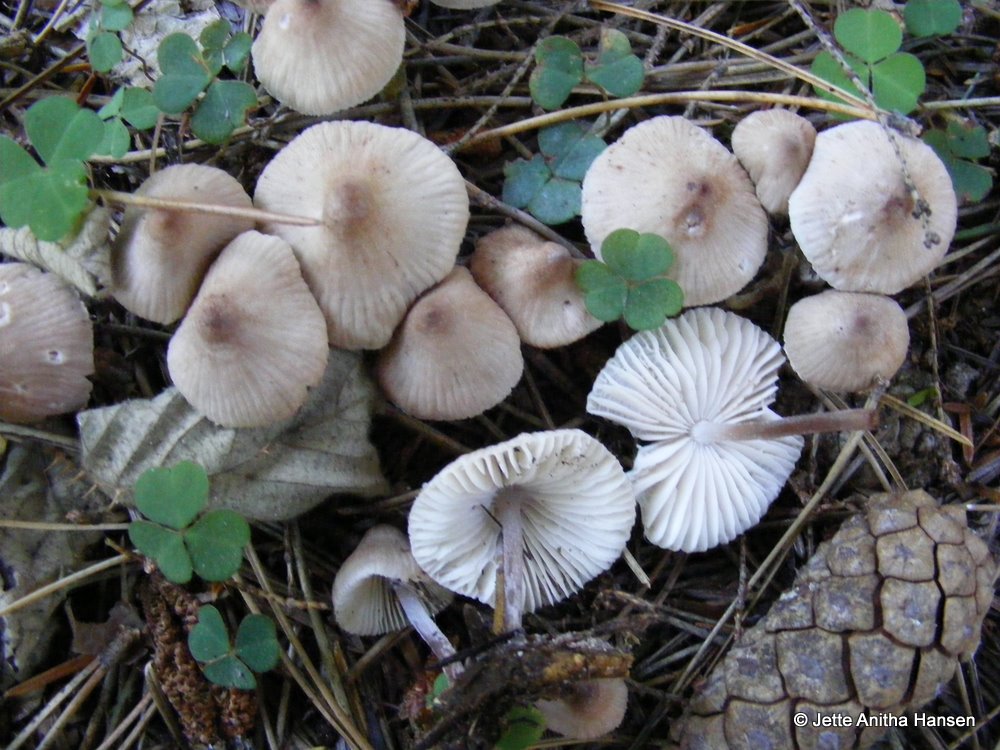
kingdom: Fungi
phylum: Basidiomycota
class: Agaricomycetes
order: Agaricales
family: Mycenaceae
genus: Mycena
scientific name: Mycena zephirus
